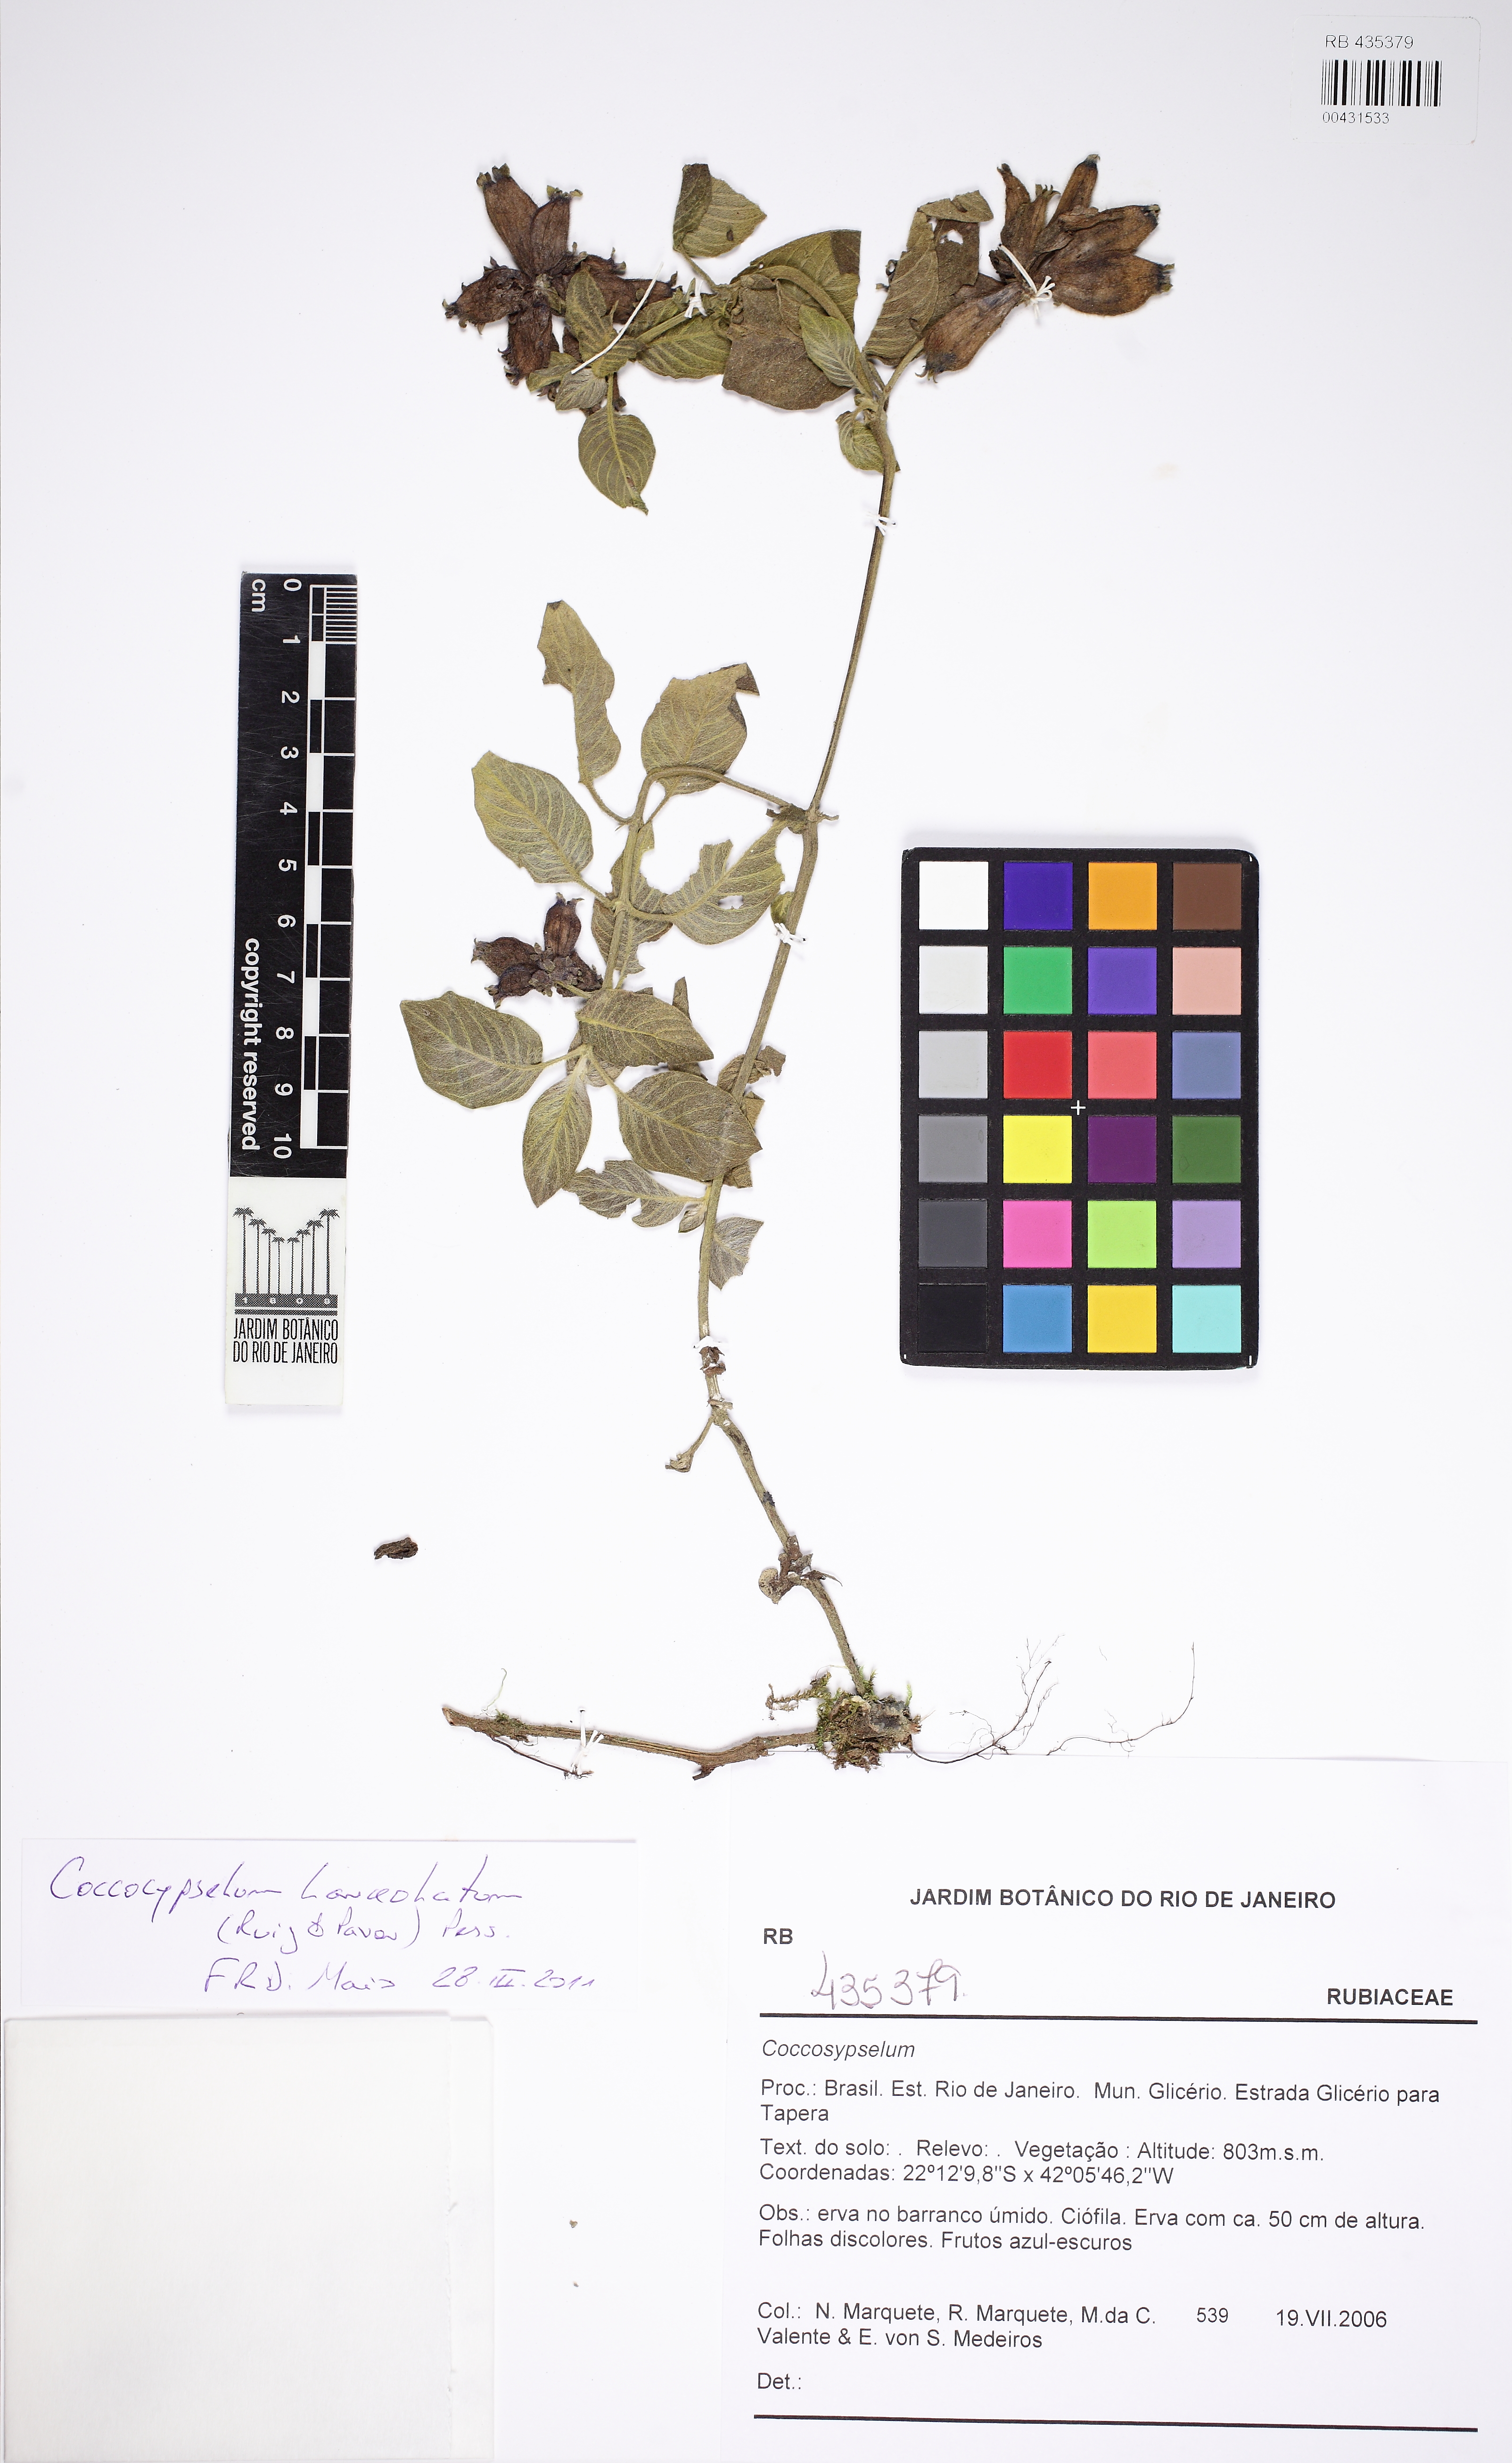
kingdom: Plantae
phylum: Tracheophyta
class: Magnoliopsida
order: Gentianales
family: Rubiaceae
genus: Coccocypselum
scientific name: Coccocypselum lanceolatum
